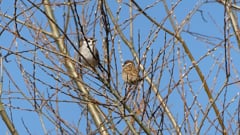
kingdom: Animalia
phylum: Chordata
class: Aves
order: Passeriformes
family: Passeridae
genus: Passer
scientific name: Passer montanus
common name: Eurasian tree sparrow
